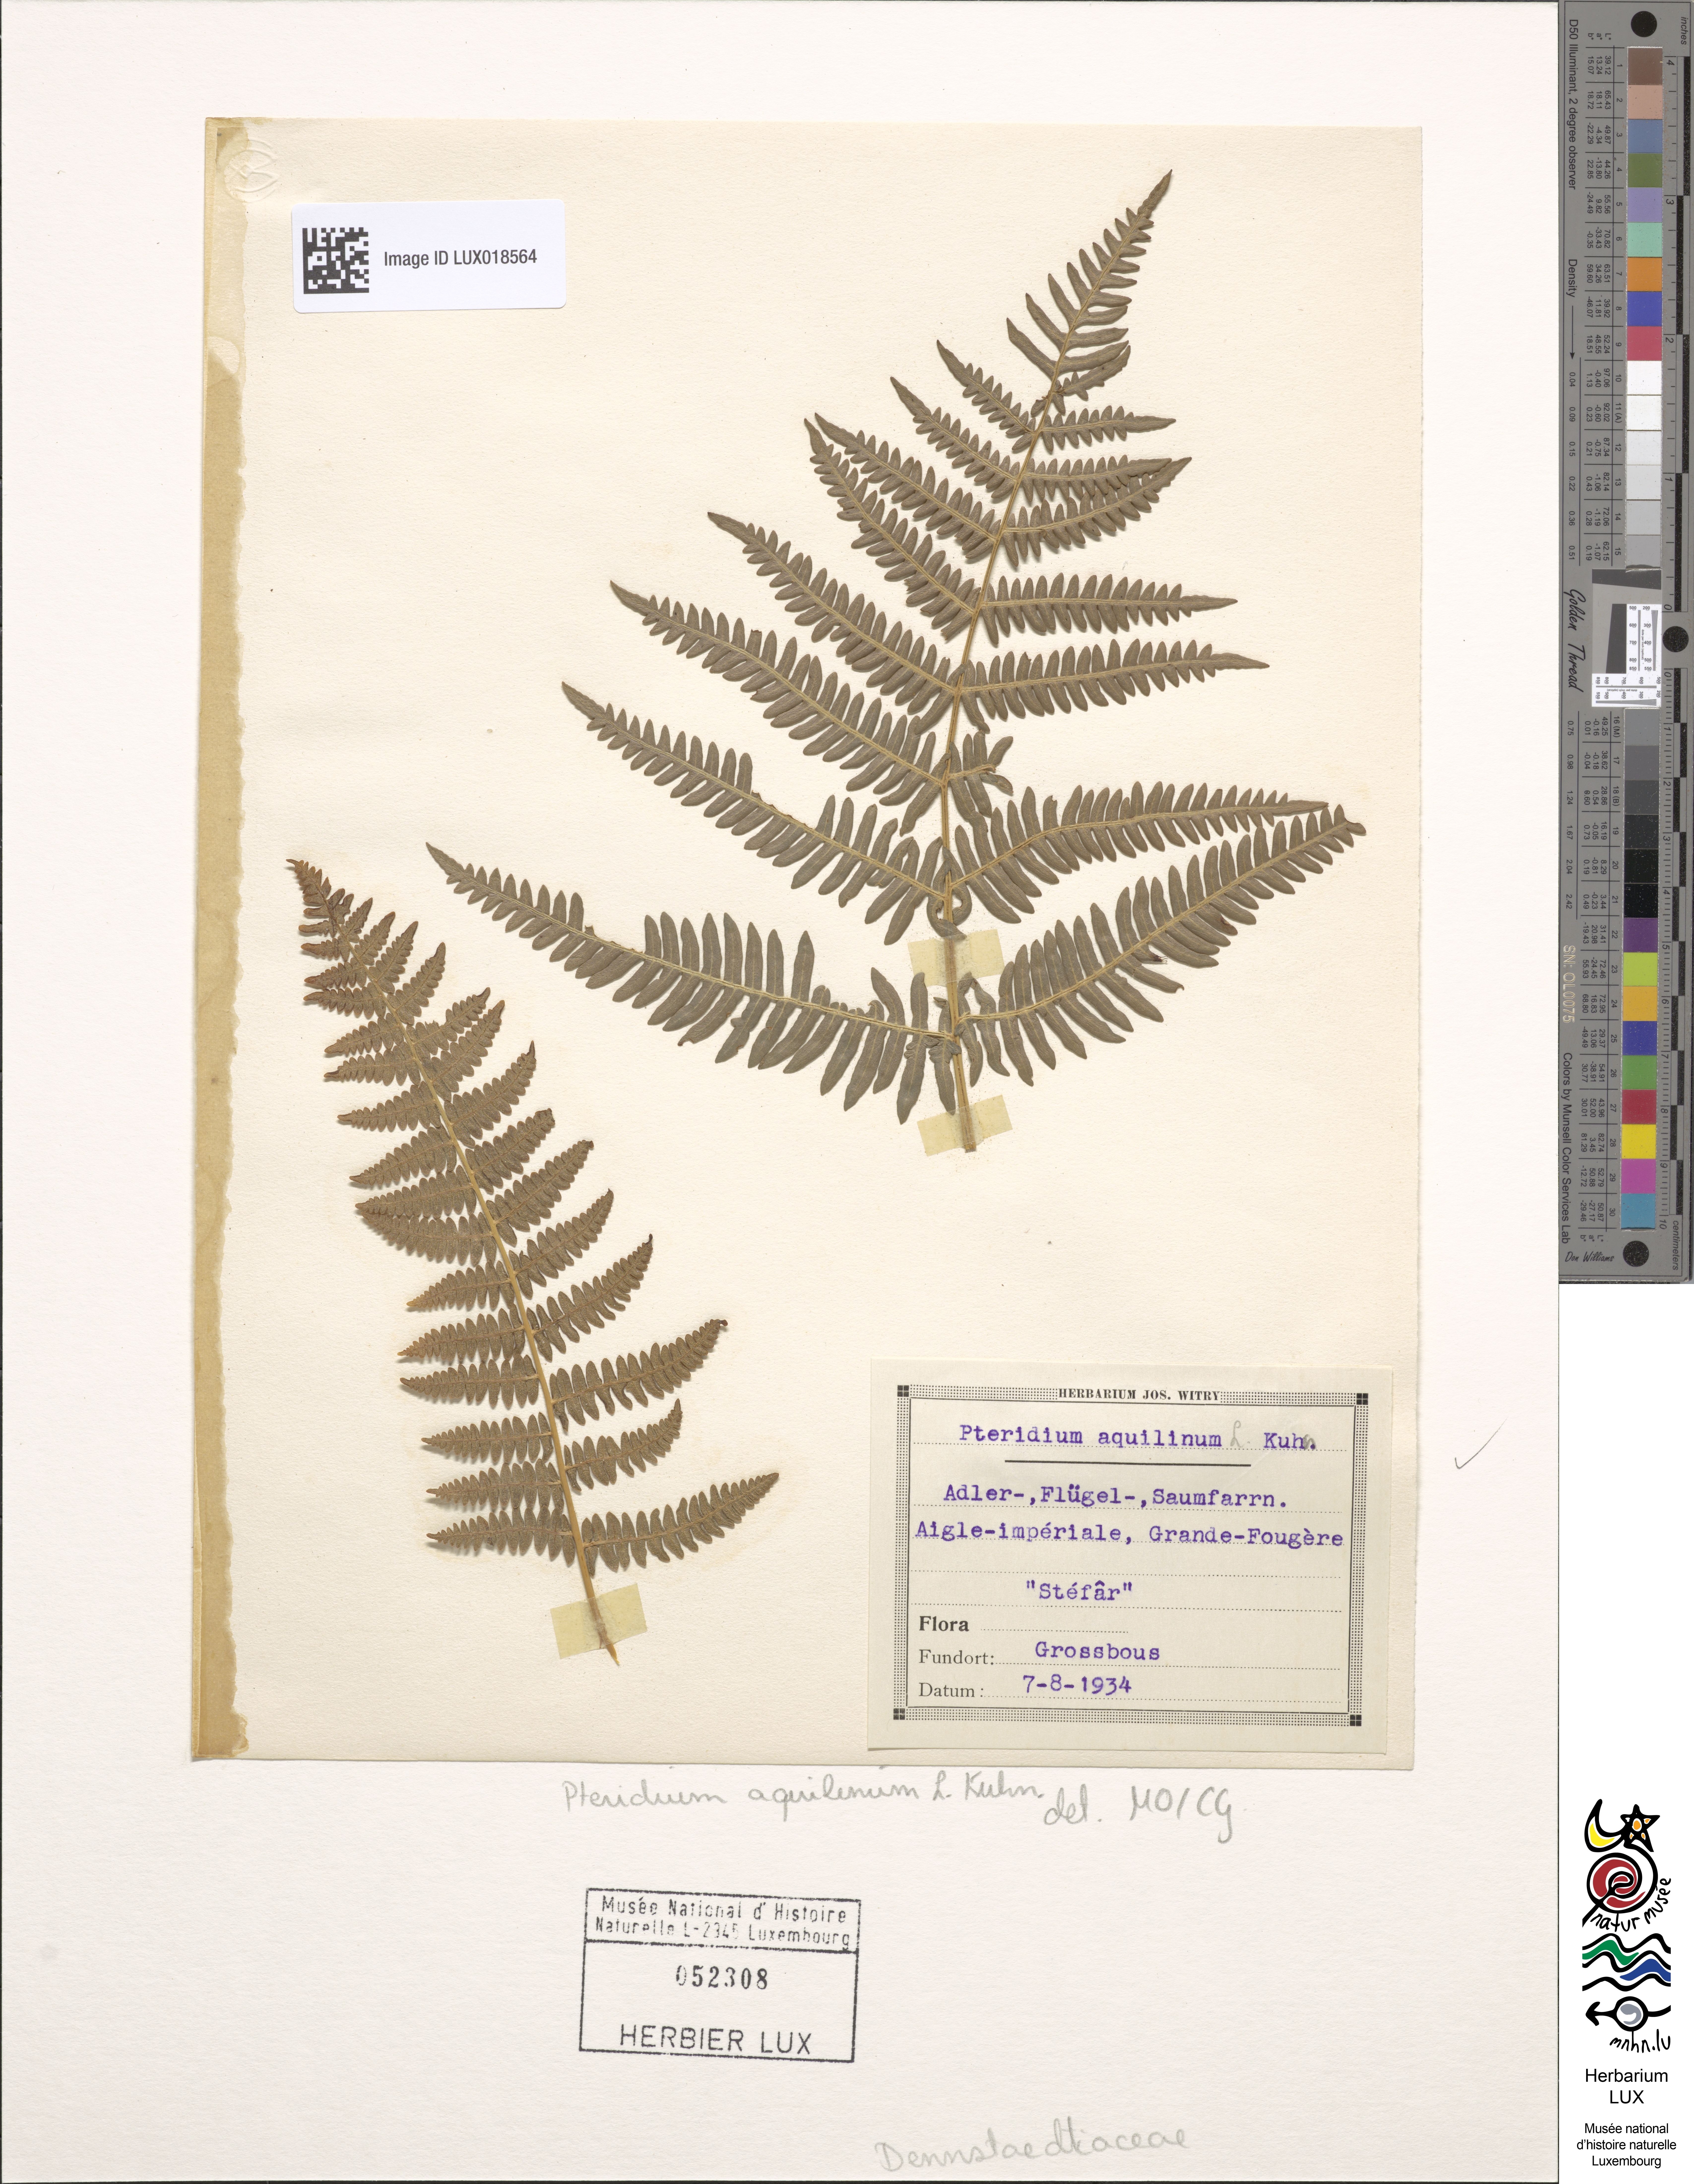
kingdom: Plantae
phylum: Tracheophyta
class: Polypodiopsida
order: Polypodiales
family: Dennstaedtiaceae
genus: Pteridium
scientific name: Pteridium aquilinum
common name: Bracken
